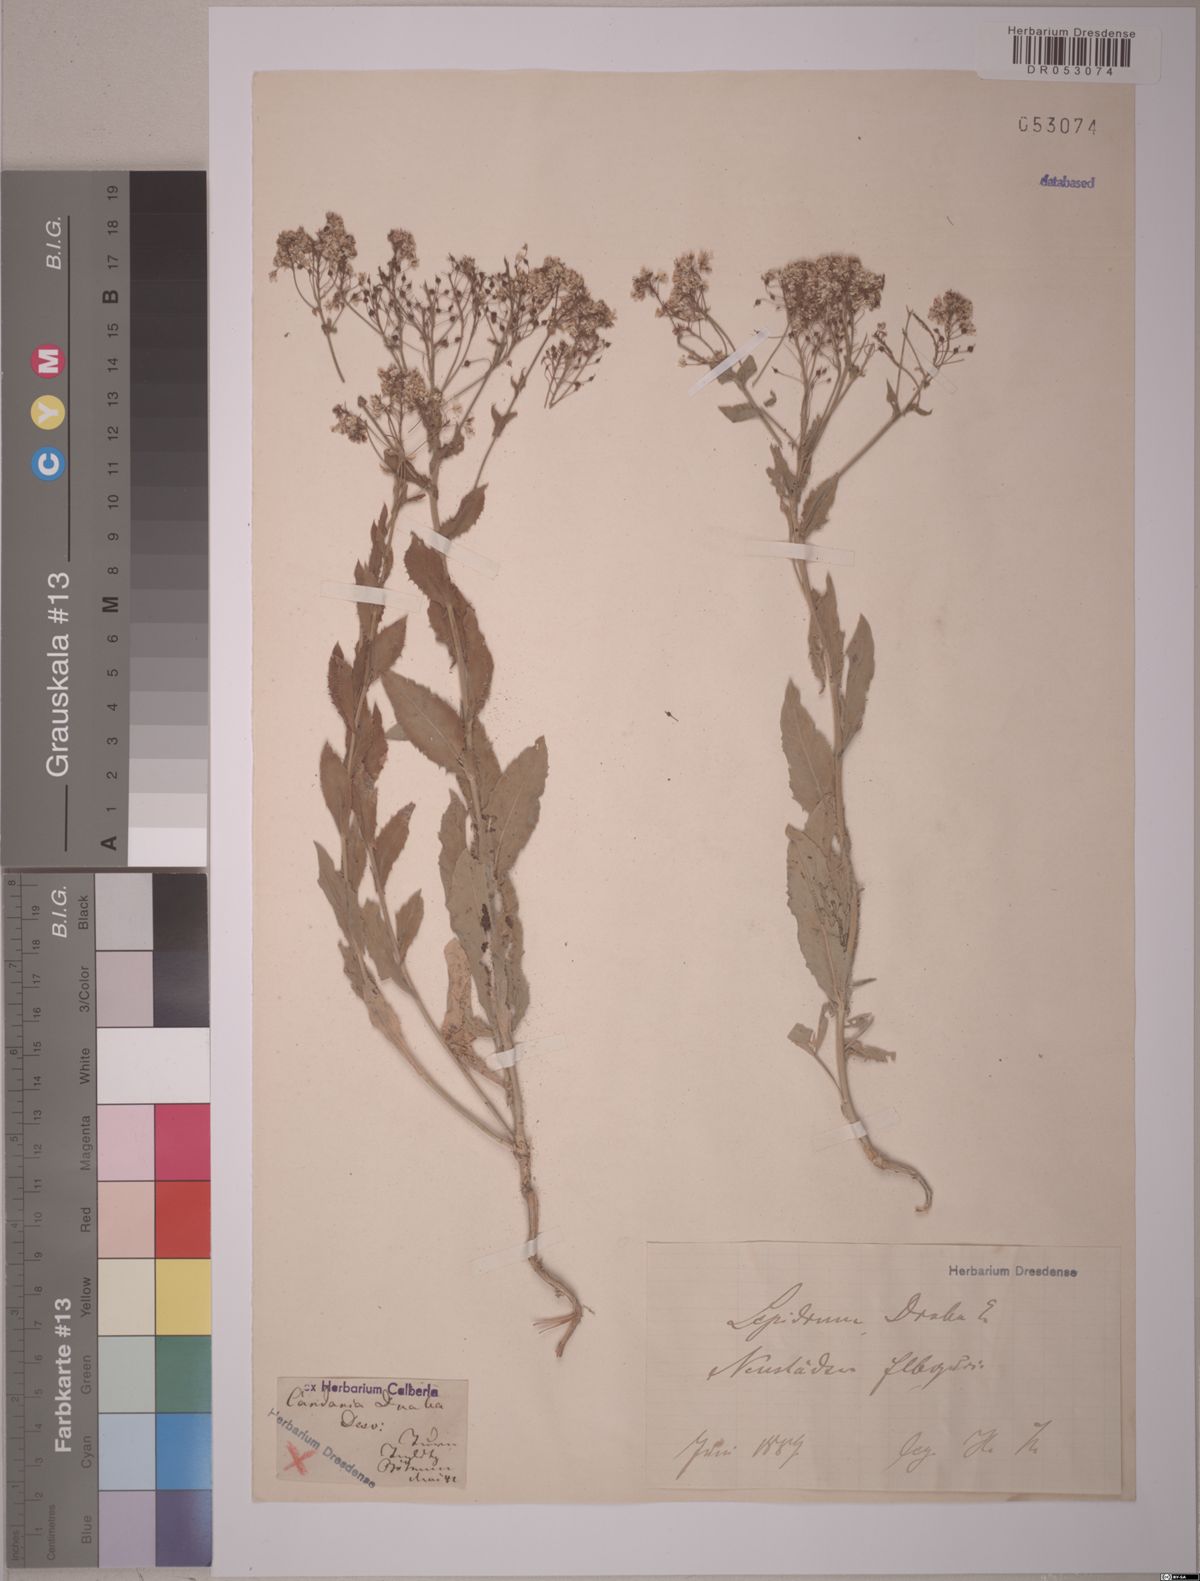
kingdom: Plantae
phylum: Tracheophyta
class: Magnoliopsida
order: Brassicales
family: Brassicaceae
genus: Lepidium
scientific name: Lepidium draba
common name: Hoary cress
